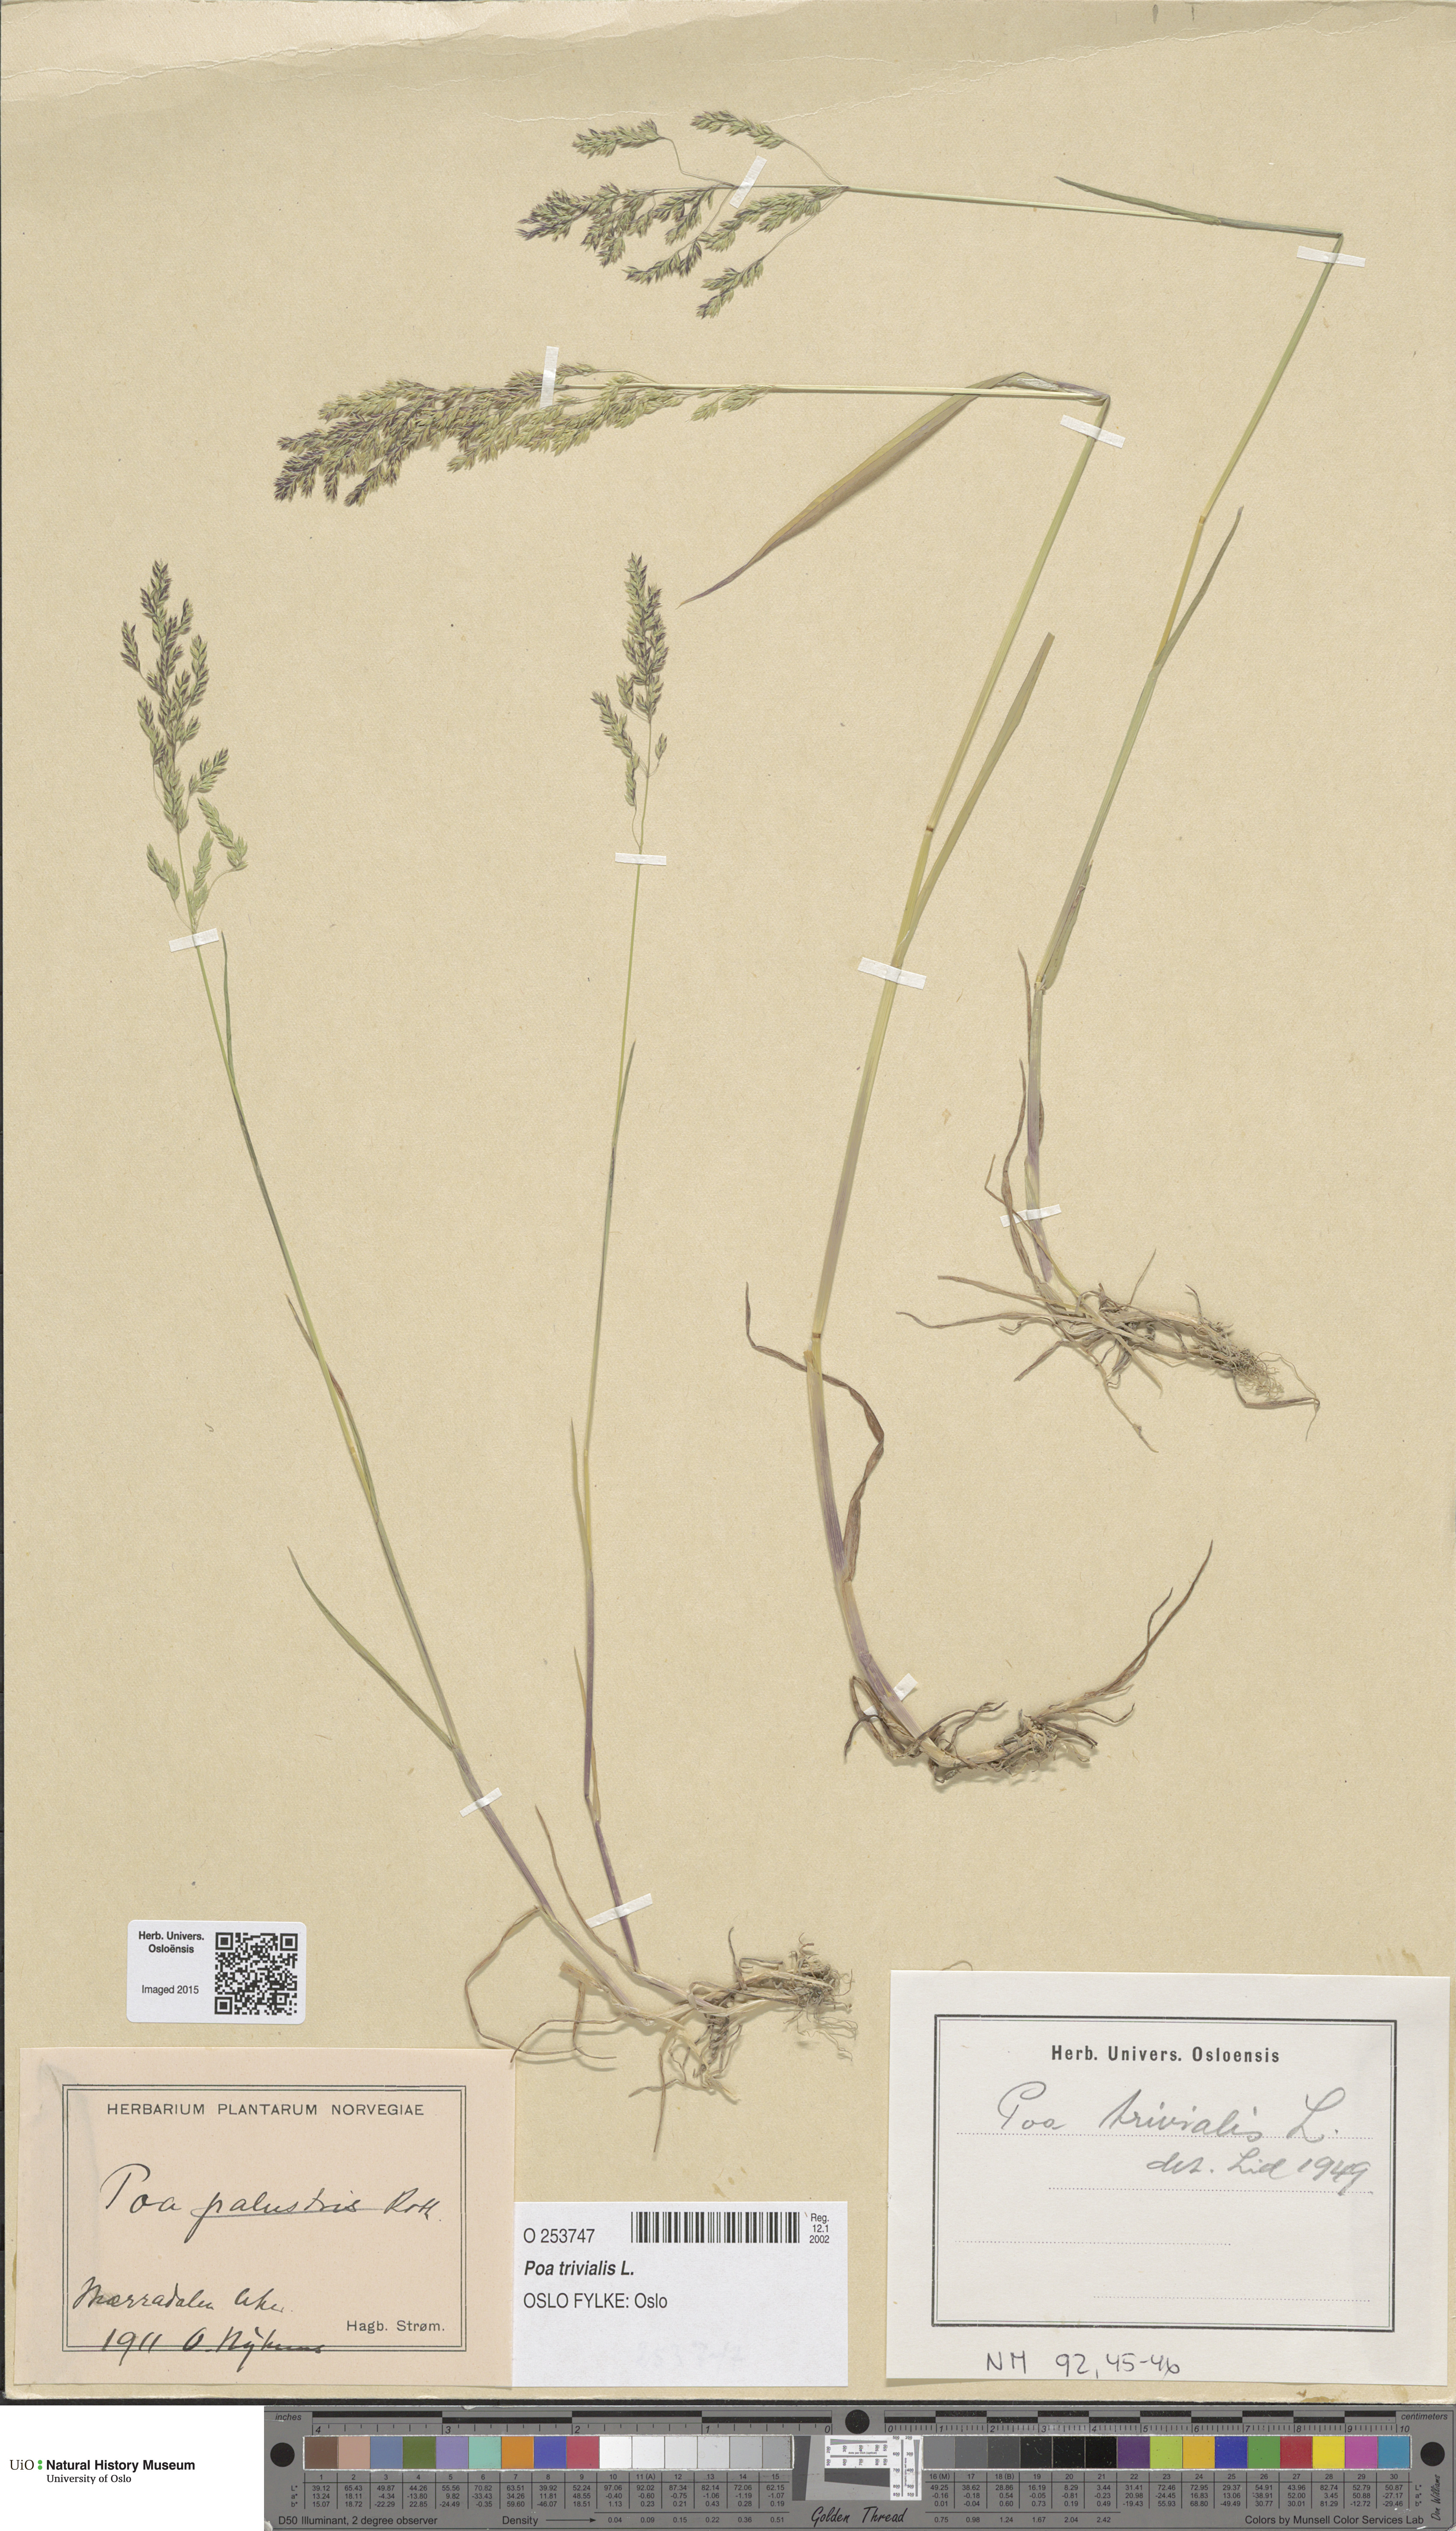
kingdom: Plantae
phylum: Tracheophyta
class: Liliopsida
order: Poales
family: Poaceae
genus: Poa
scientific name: Poa trivialis
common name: Rough bluegrass
